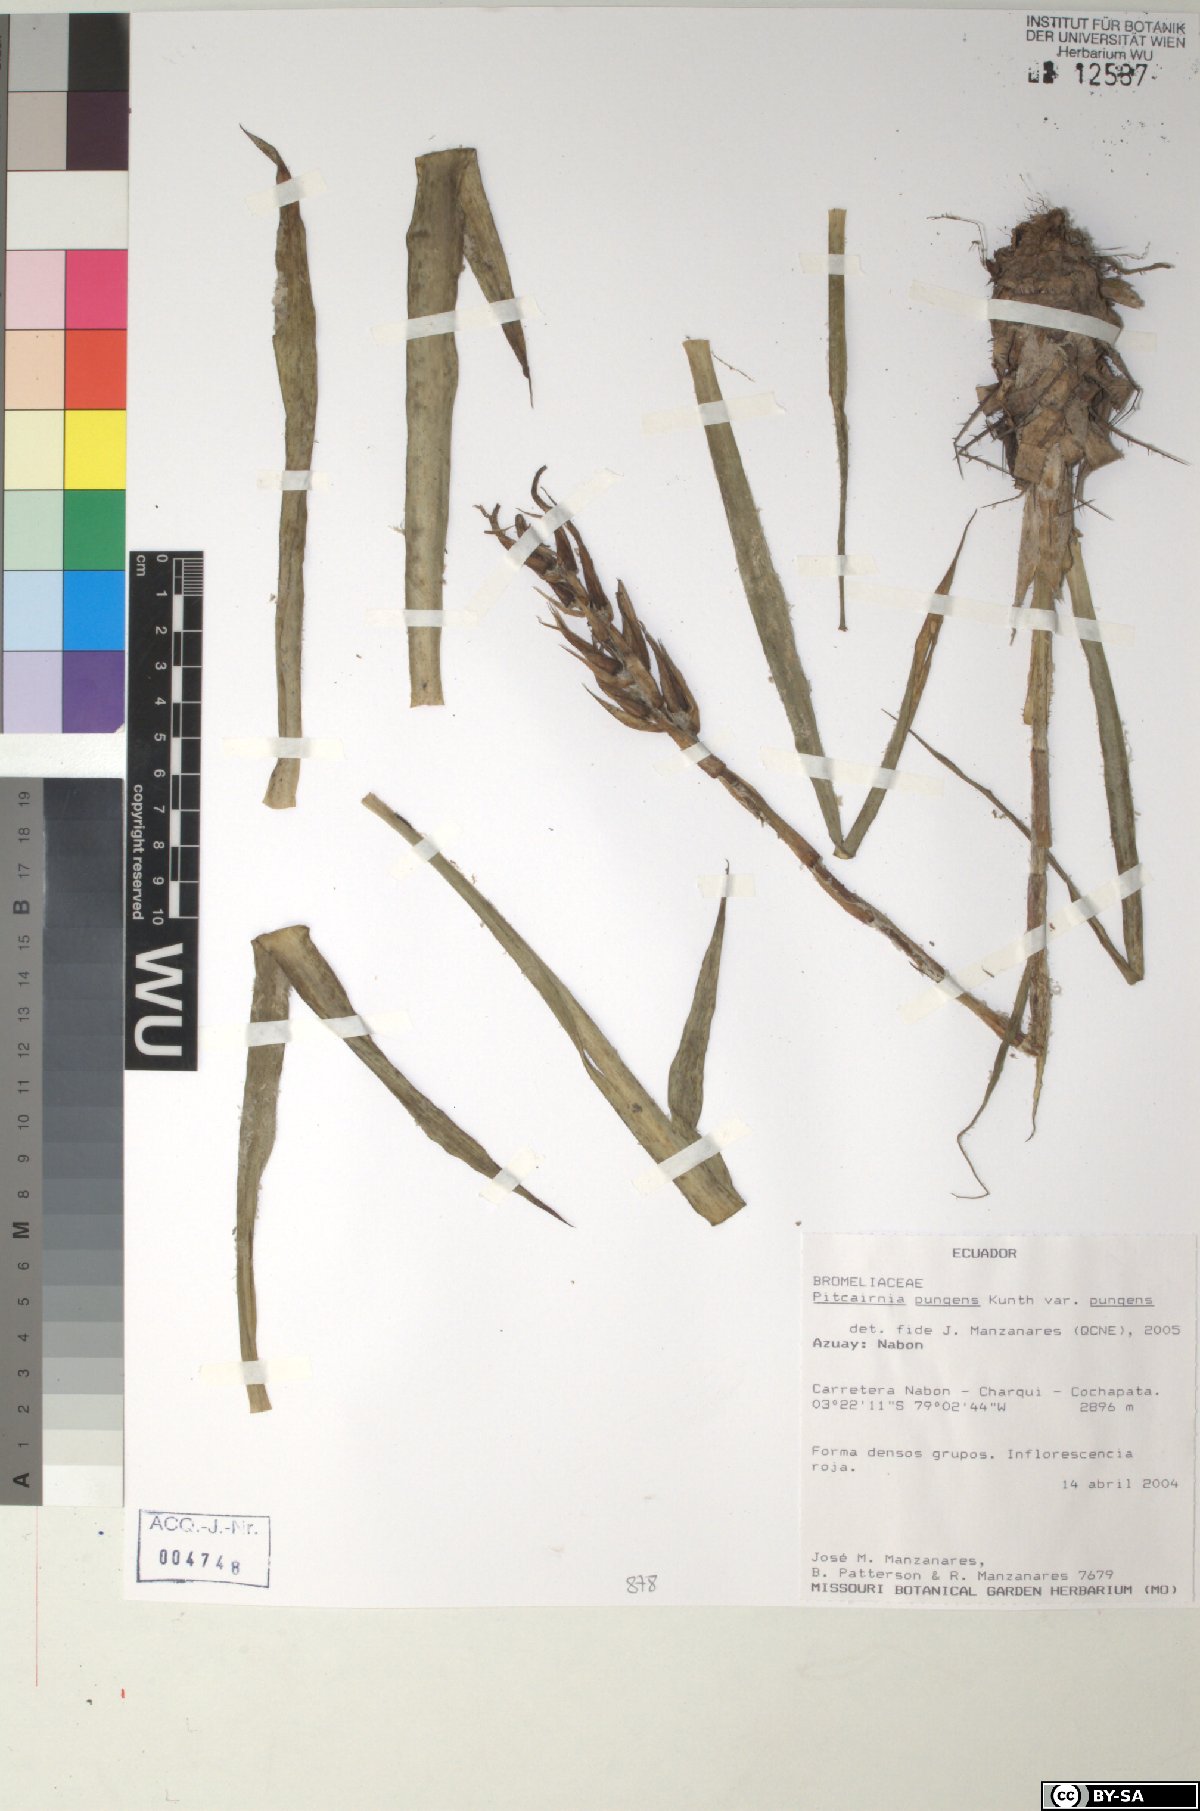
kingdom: Plantae
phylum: Tracheophyta
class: Liliopsida
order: Poales
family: Bromeliaceae
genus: Pitcairnia
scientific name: Pitcairnia pungens
